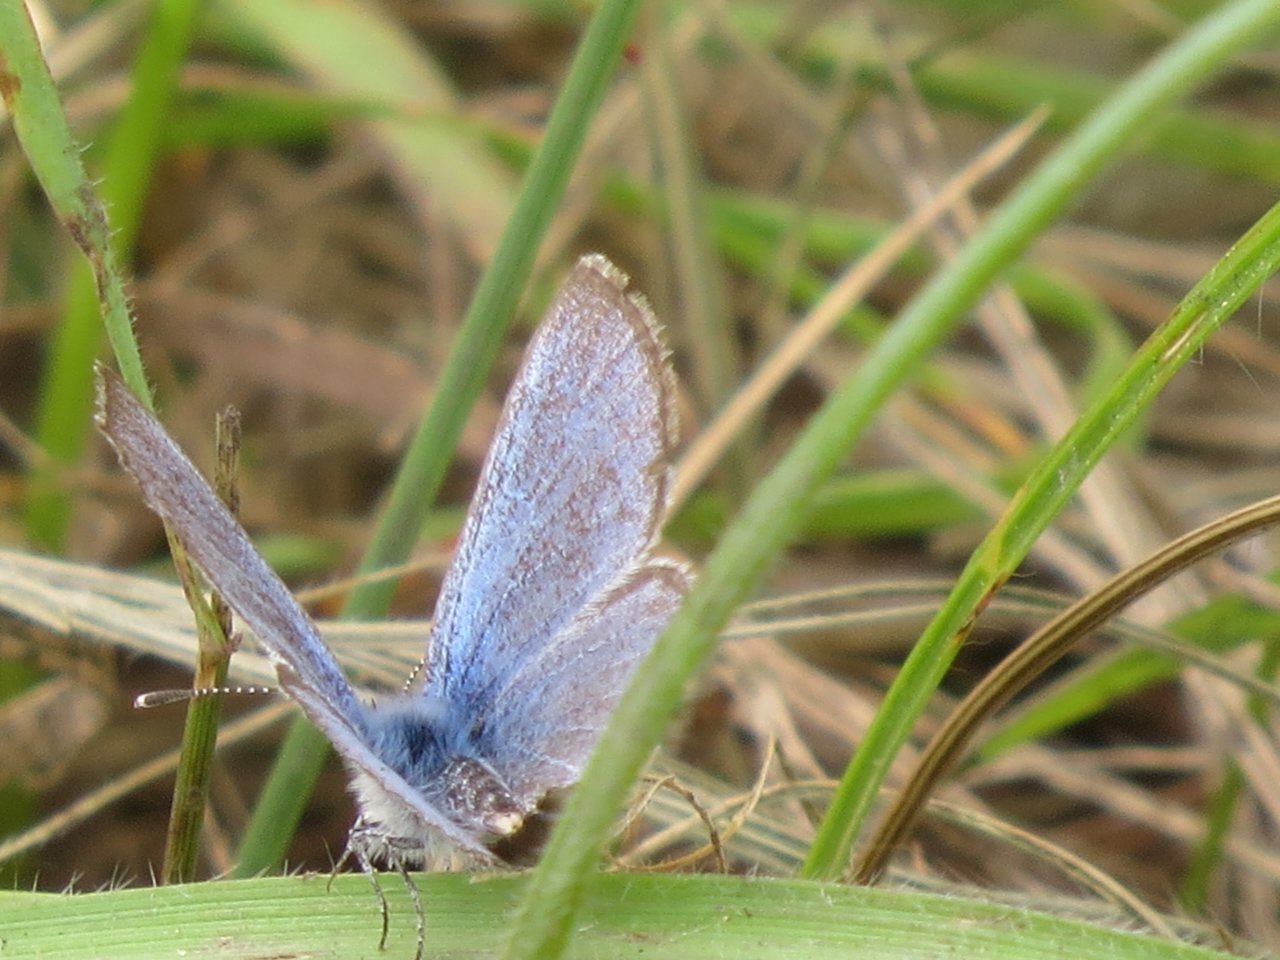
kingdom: Animalia
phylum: Arthropoda
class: Insecta
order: Lepidoptera
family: Lycaenidae
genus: Glaucopsyche
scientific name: Glaucopsyche lygdamus
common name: Silvery Blue
